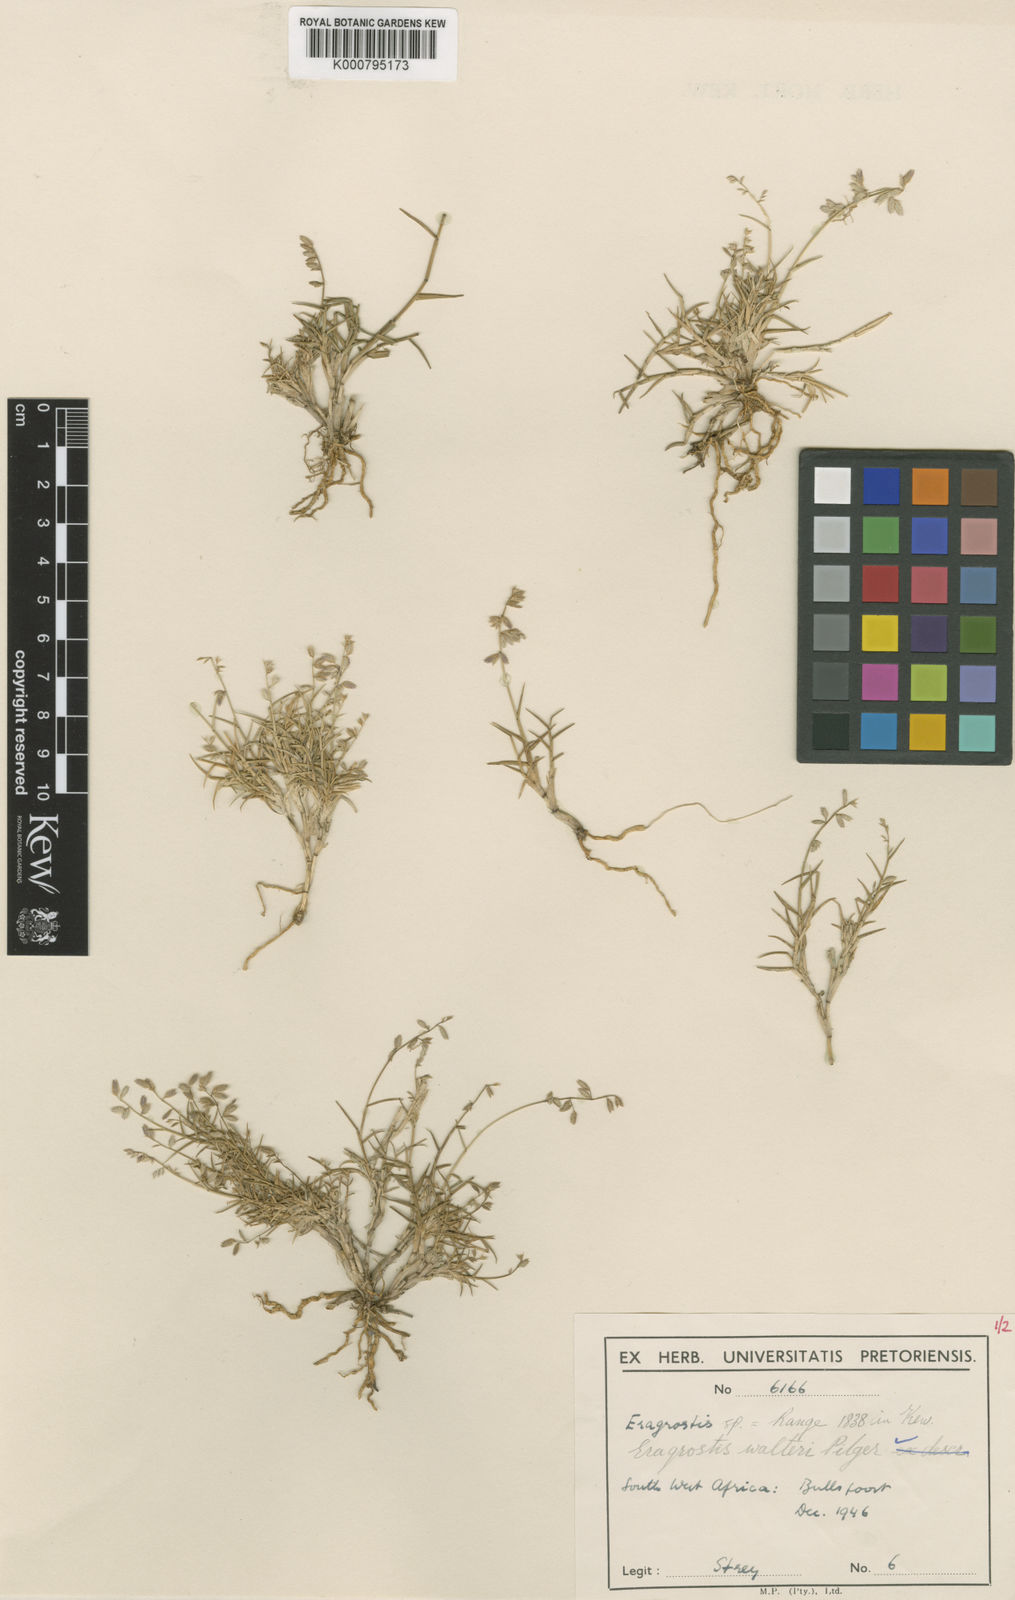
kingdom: Plantae
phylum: Tracheophyta
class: Liliopsida
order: Poales
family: Poaceae
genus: Pratochloa
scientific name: Pratochloa walteri
